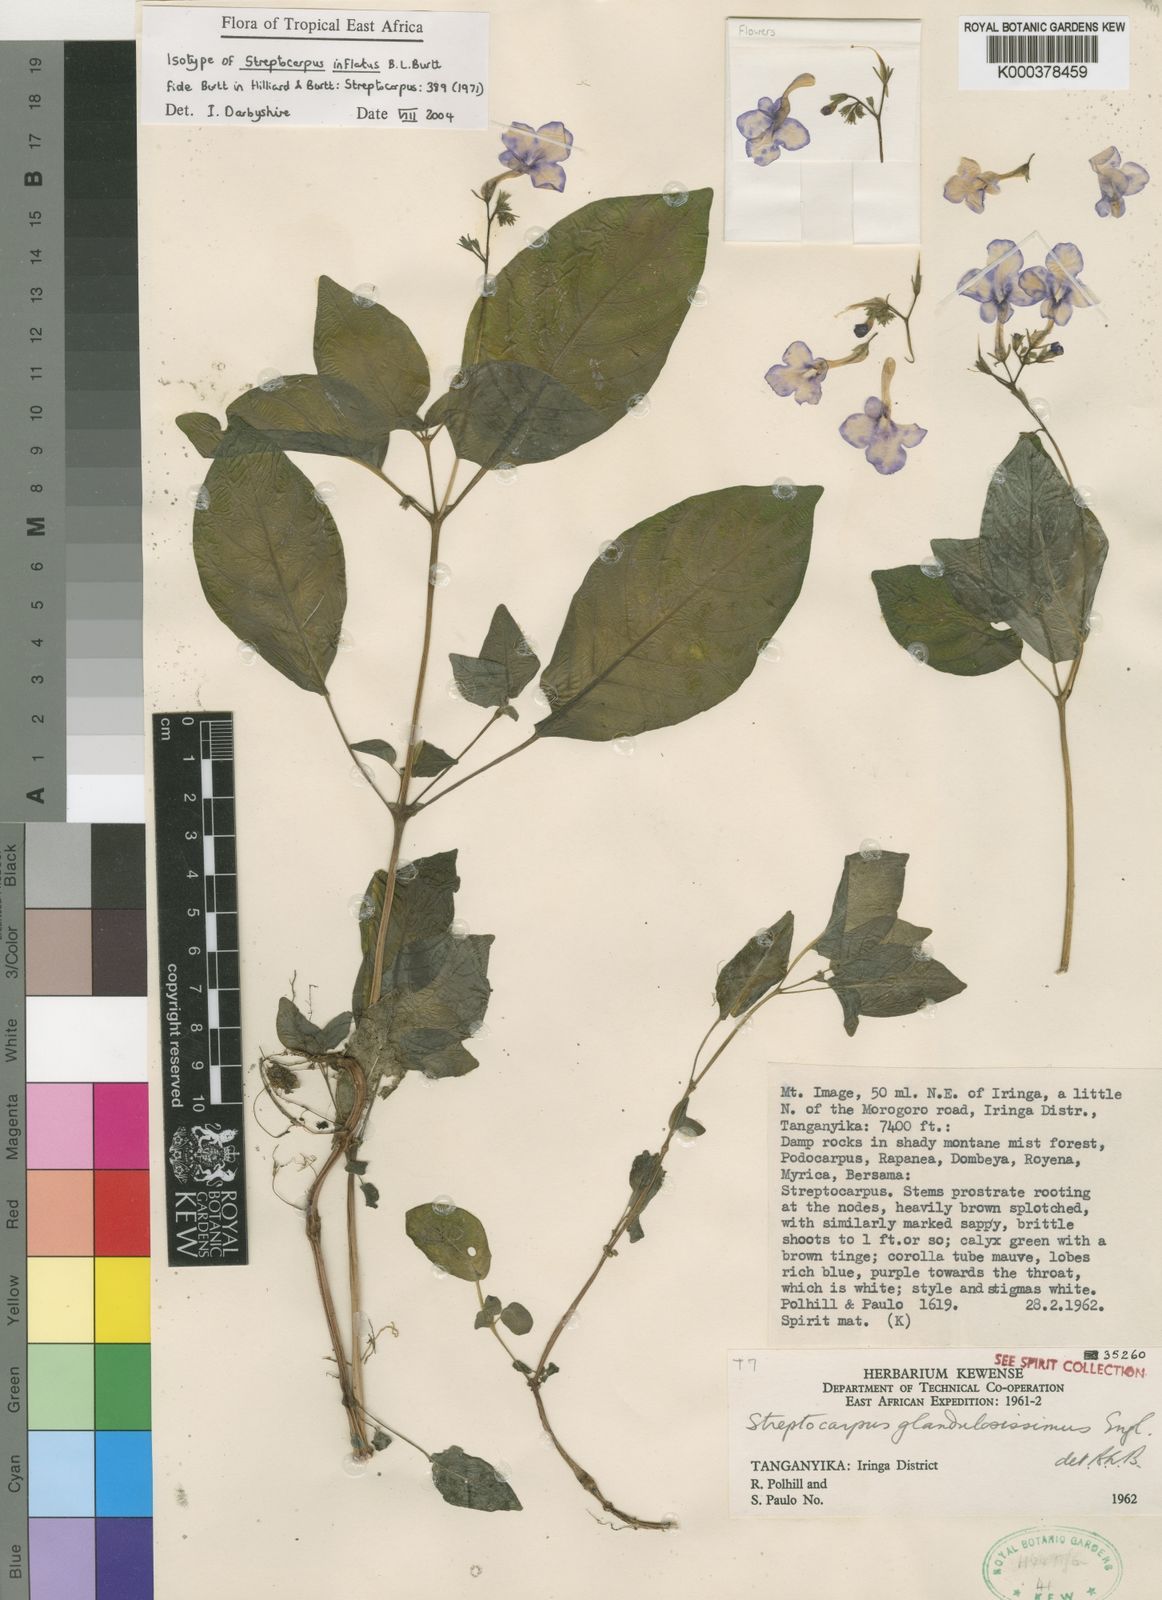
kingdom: Plantae
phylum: Tracheophyta
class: Magnoliopsida
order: Lamiales
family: Gesneriaceae
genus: Streptocarpus
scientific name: Streptocarpus inflatus
